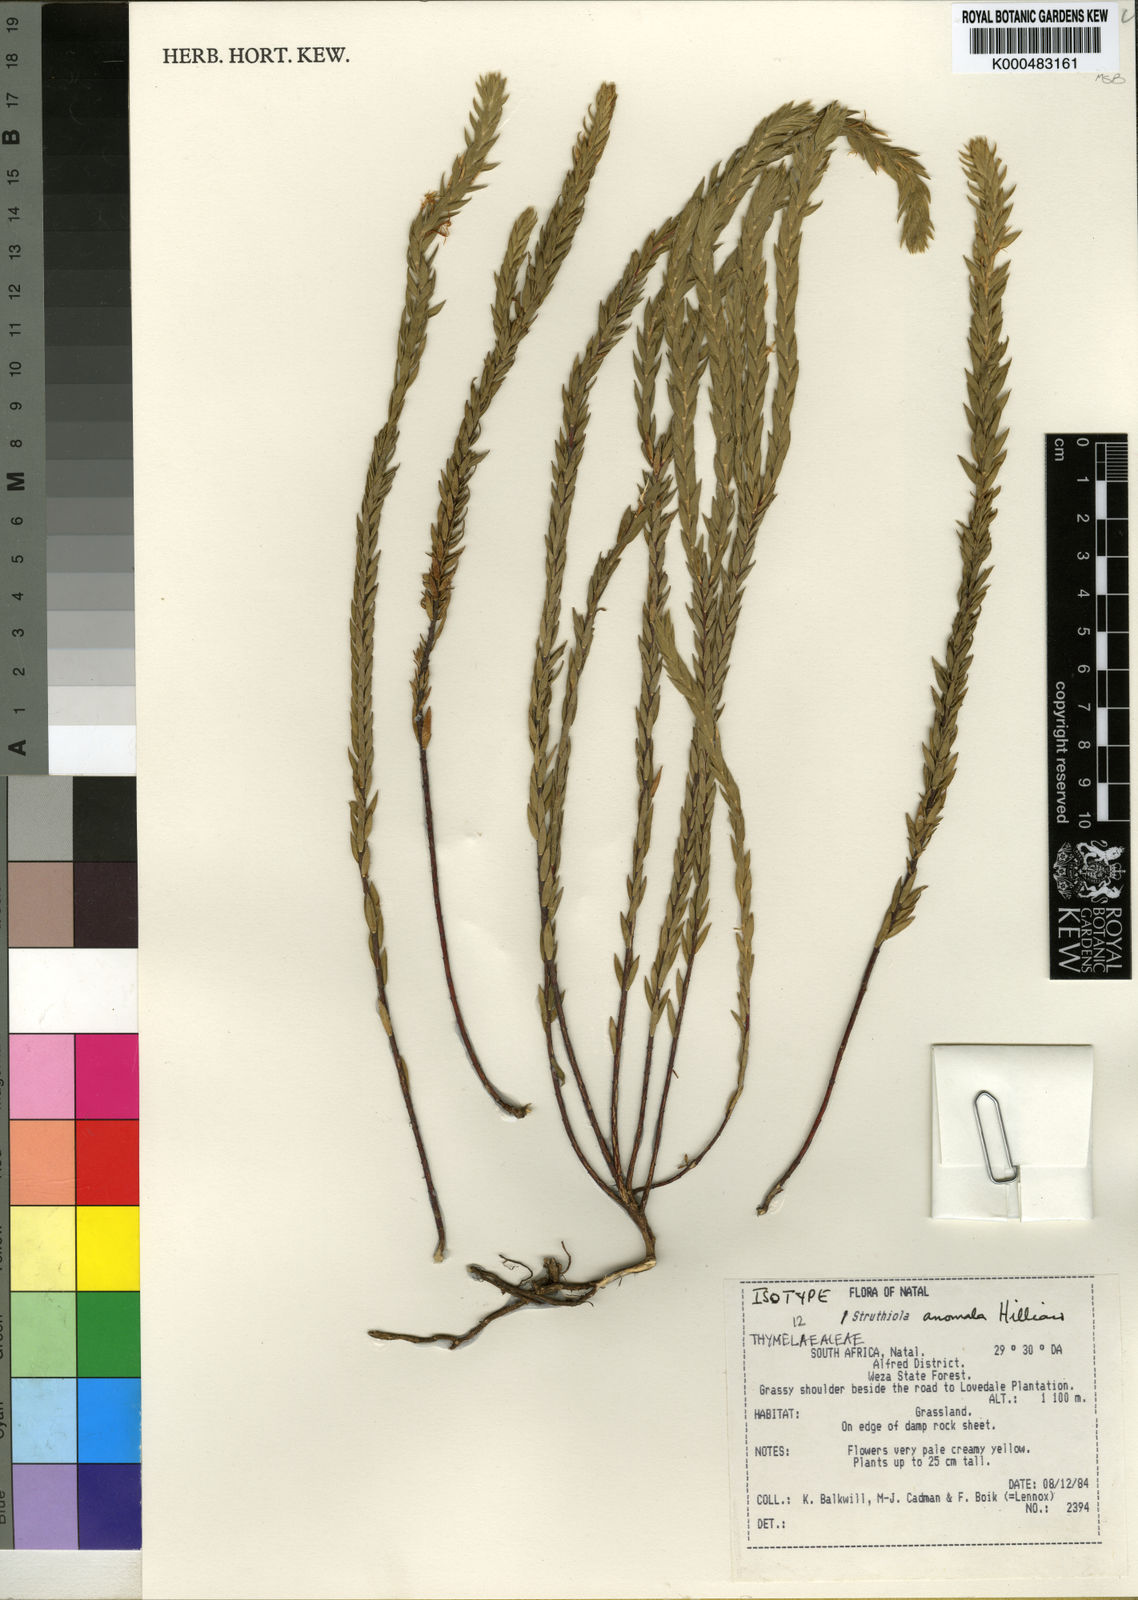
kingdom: Plantae
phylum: Tracheophyta
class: Magnoliopsida
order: Malvales
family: Thymelaeaceae
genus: Struthiola
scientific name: Struthiola anomala
